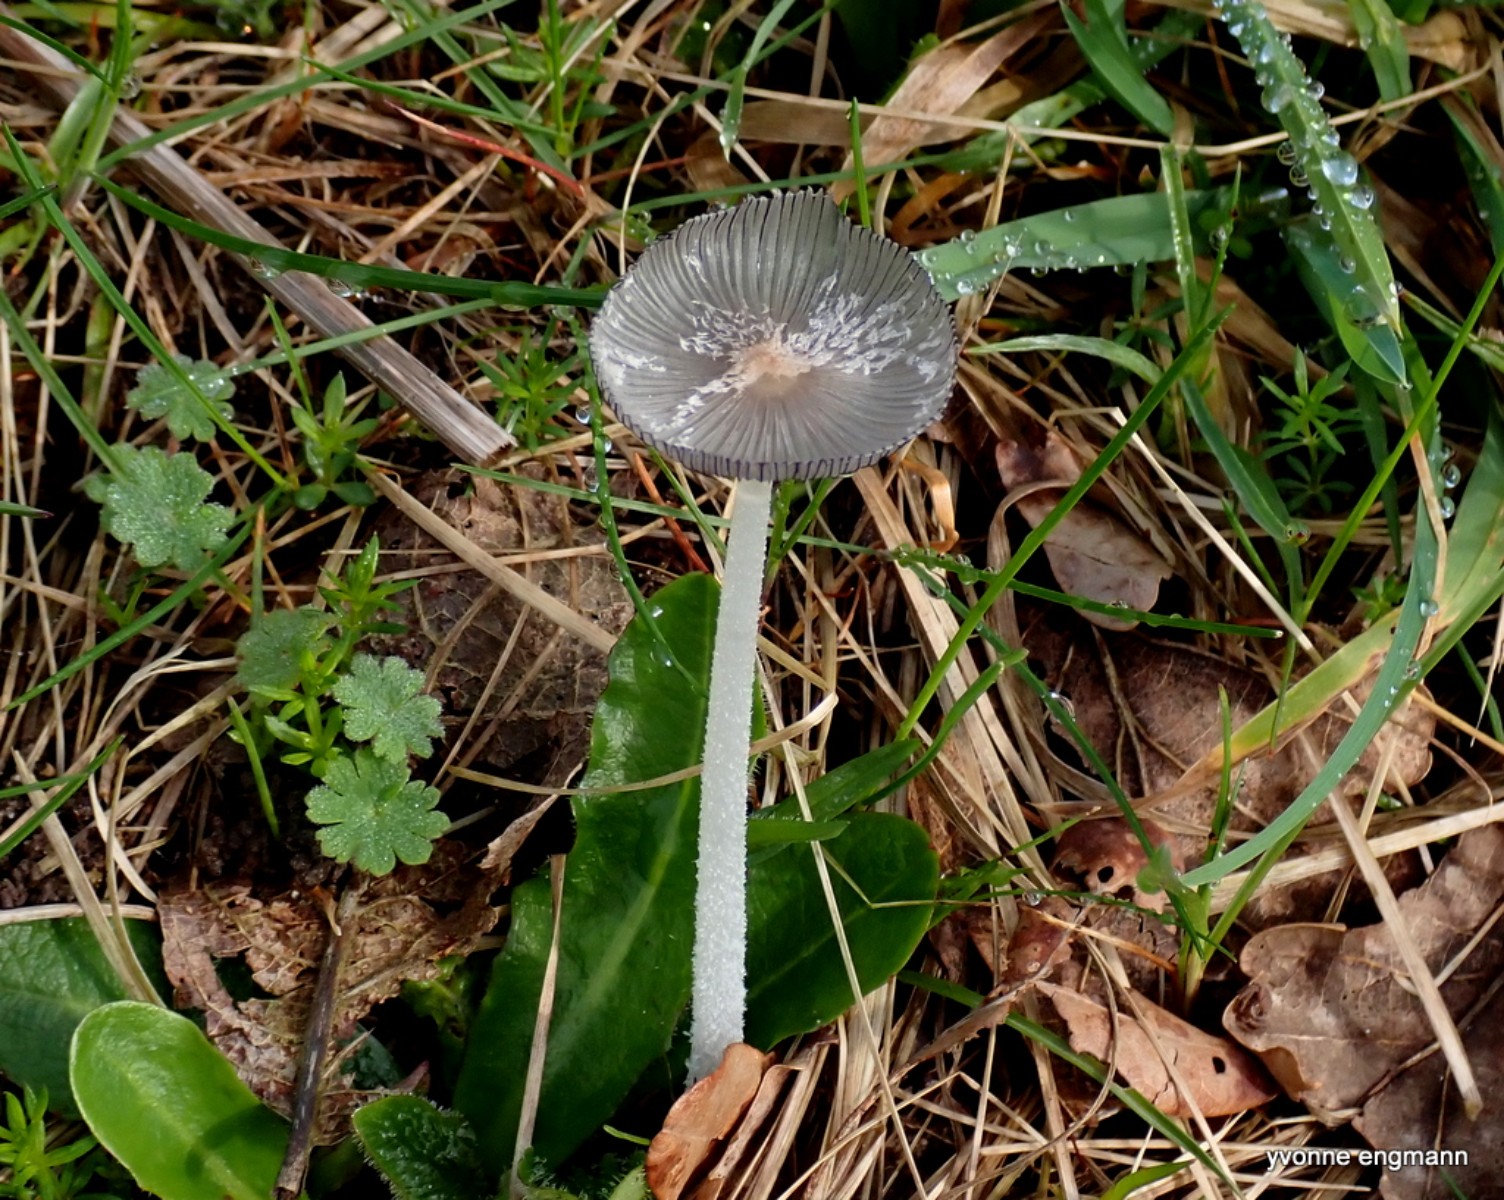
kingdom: Fungi
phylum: Basidiomycota
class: Agaricomycetes
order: Agaricales
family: Psathyrellaceae
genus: Coprinopsis
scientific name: Coprinopsis lagopus
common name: dunstokket blækhat
